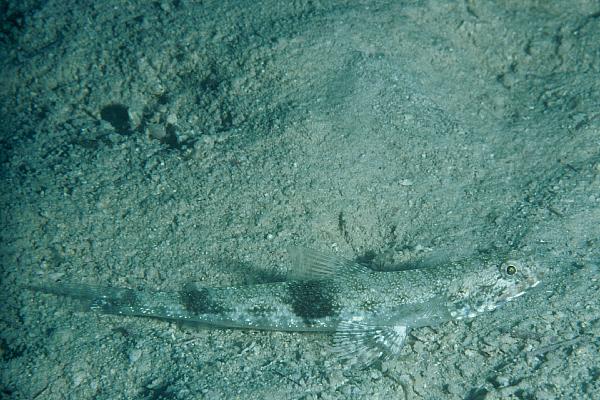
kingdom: Animalia
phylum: Chordata
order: Aulopiformes
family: Synodontidae
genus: Saurida
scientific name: Saurida gracilis
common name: Slender lizardfish
